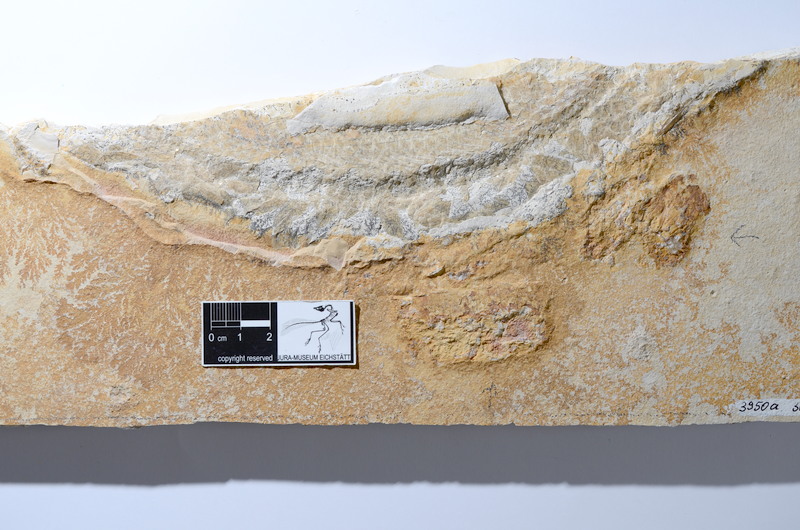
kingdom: Animalia
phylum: Chordata
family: Aspidorhynchidae
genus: Aspidorhynchus
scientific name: Aspidorhynchus acutirostris
